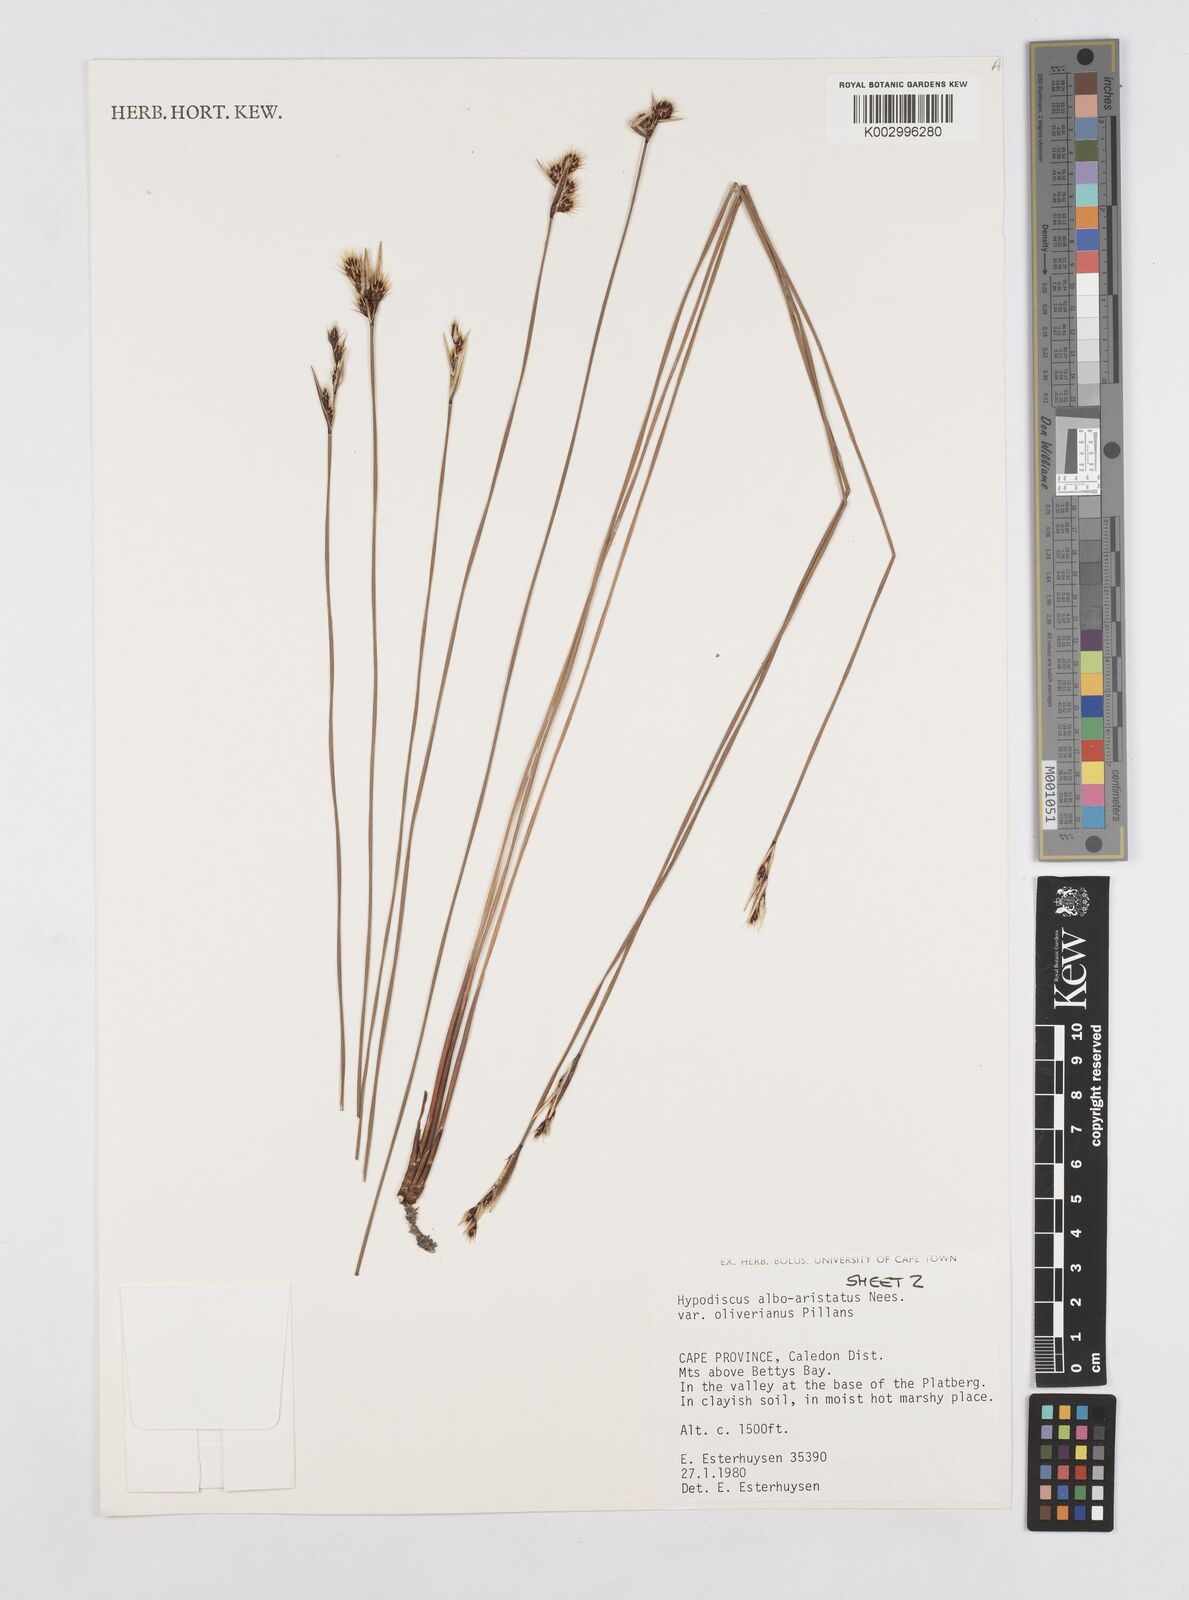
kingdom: Plantae
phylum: Tracheophyta
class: Liliopsida
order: Poales
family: Restionaceae
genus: Hypodiscus
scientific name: Hypodiscus alboaristatus
